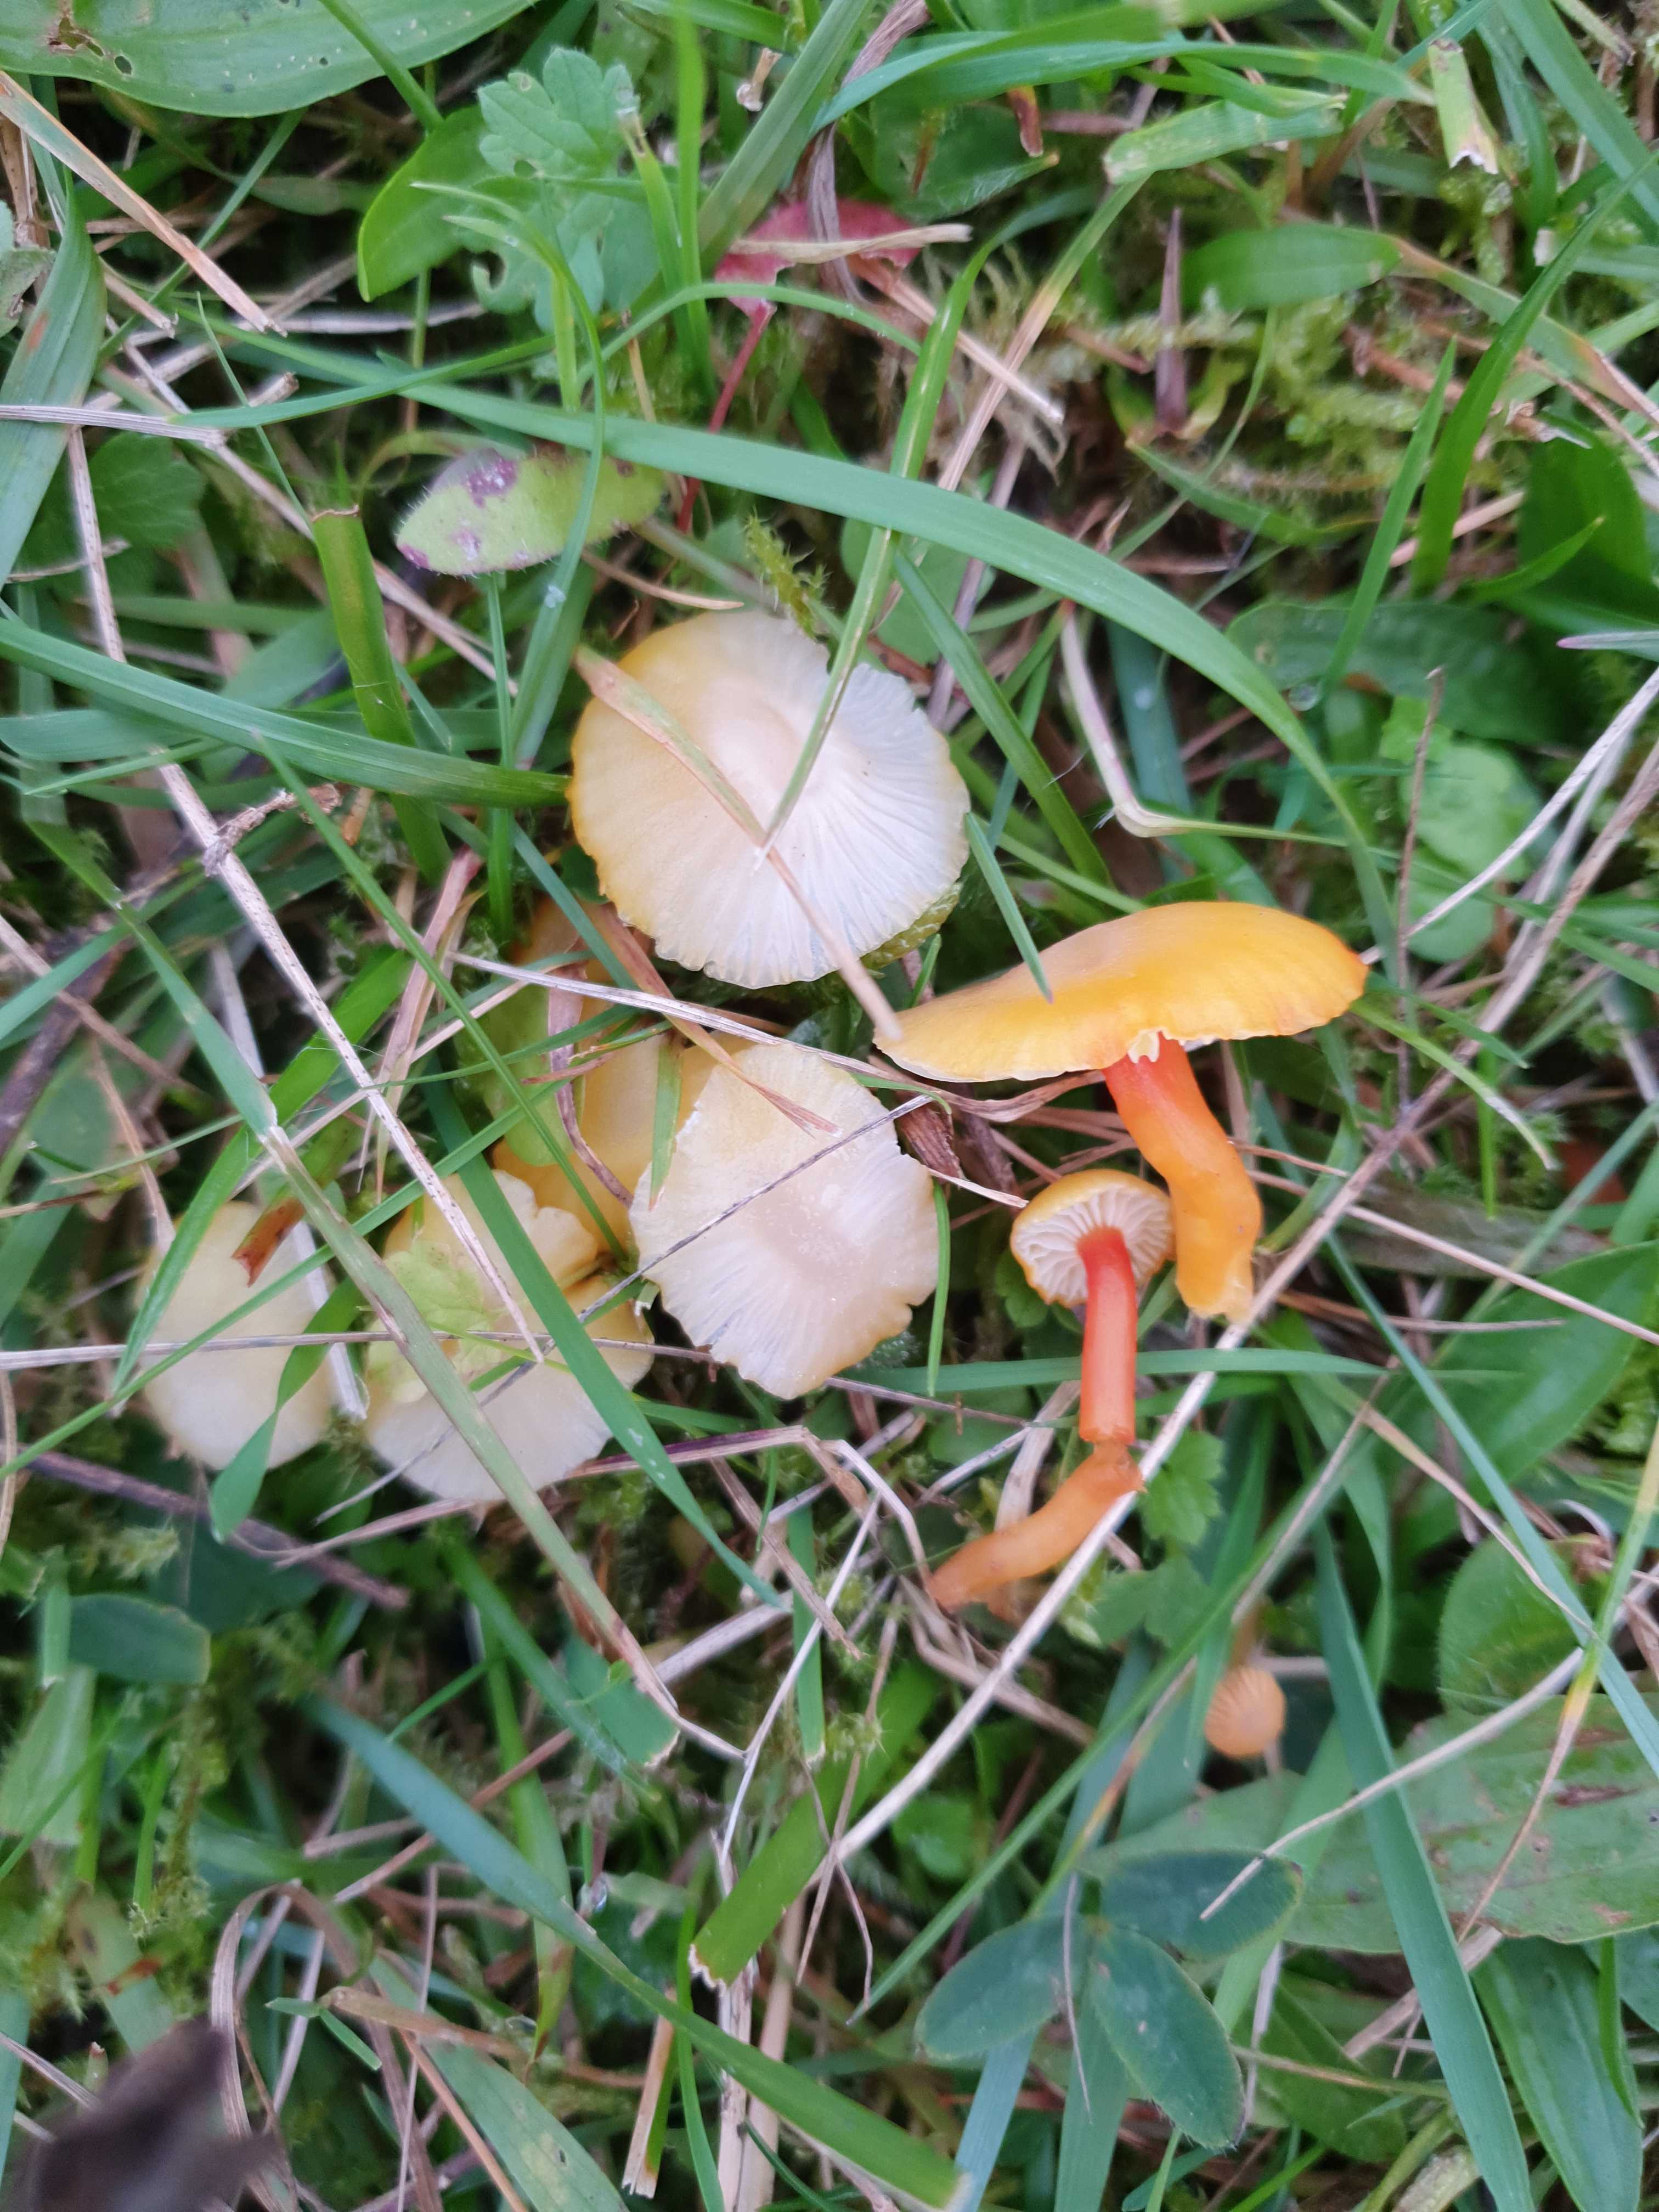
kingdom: Fungi
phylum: Basidiomycota
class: Agaricomycetes
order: Agaricales
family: Hygrophoraceae
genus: Hygrocybe
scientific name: Hygrocybe insipida
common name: liden vokshat
